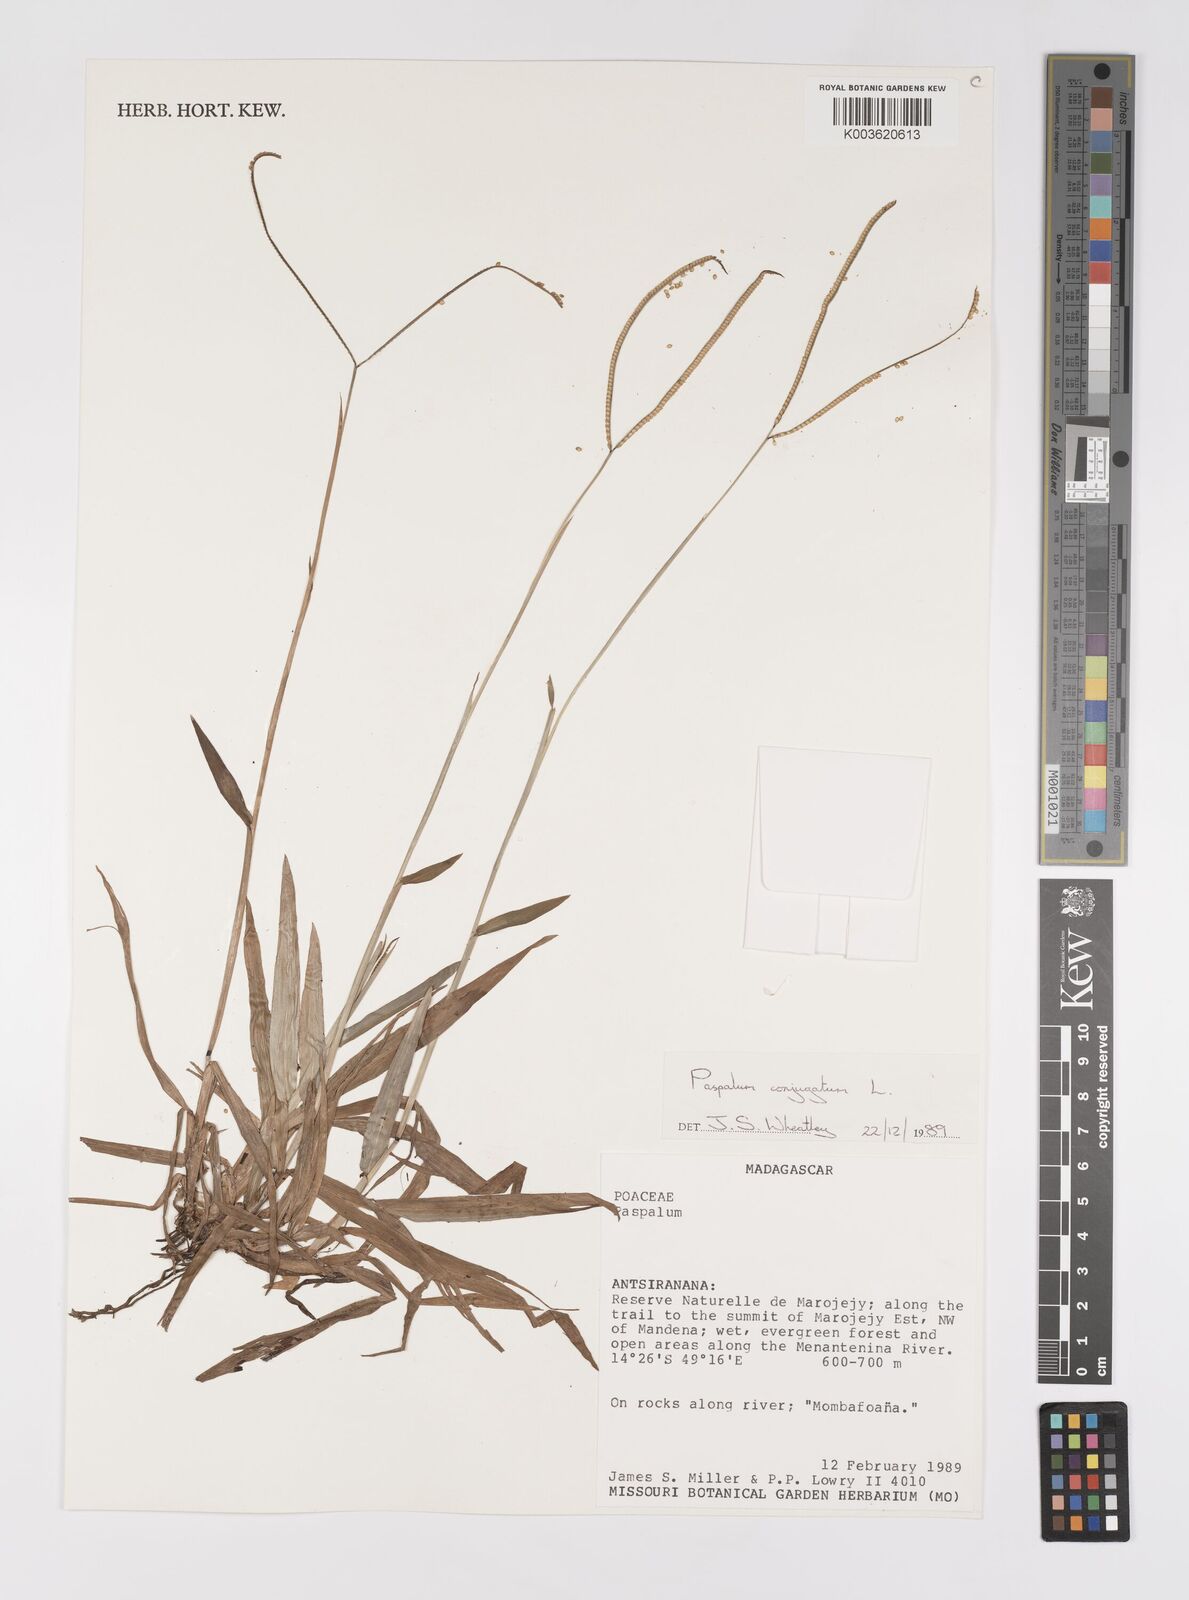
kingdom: Plantae
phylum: Tracheophyta
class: Liliopsida
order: Poales
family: Poaceae
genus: Paspalum
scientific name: Paspalum conjugatum
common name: Hilograss
